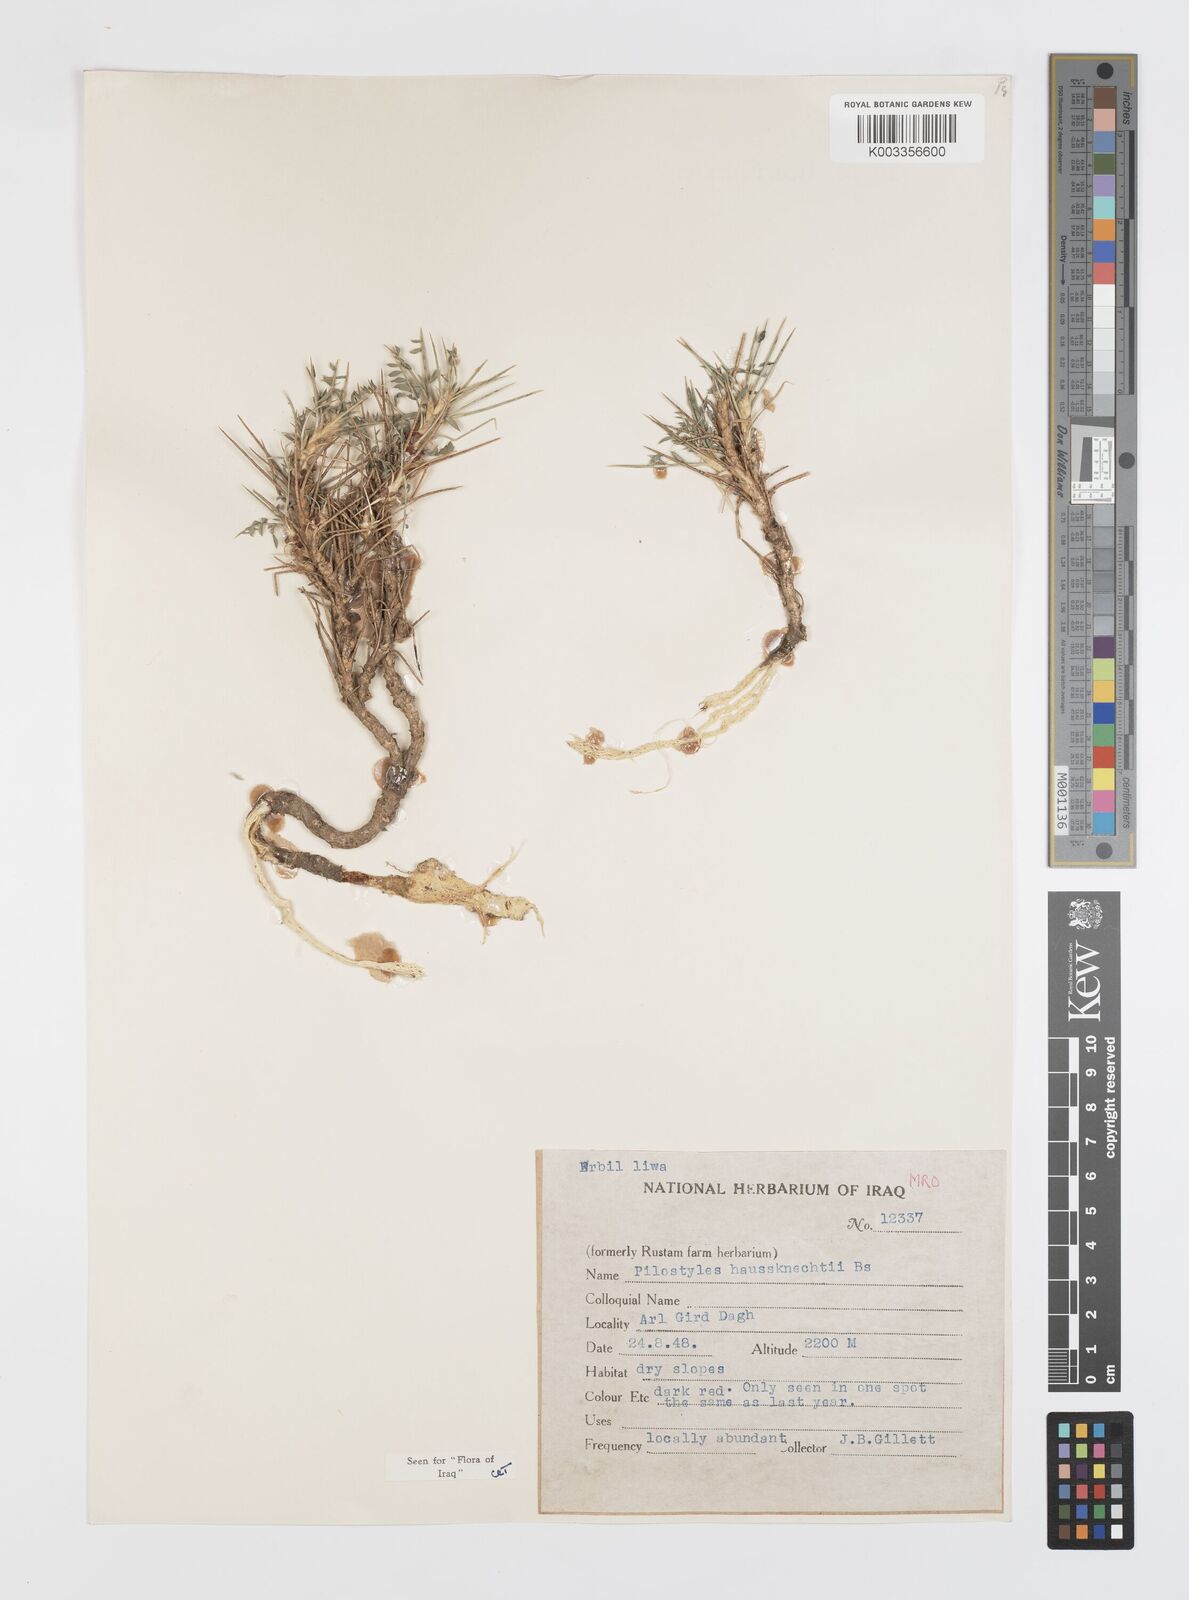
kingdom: Plantae
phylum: Tracheophyta
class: Magnoliopsida
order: Cucurbitales
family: Apodanthaceae
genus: Pilostyles
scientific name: Pilostyles haussknechtii
